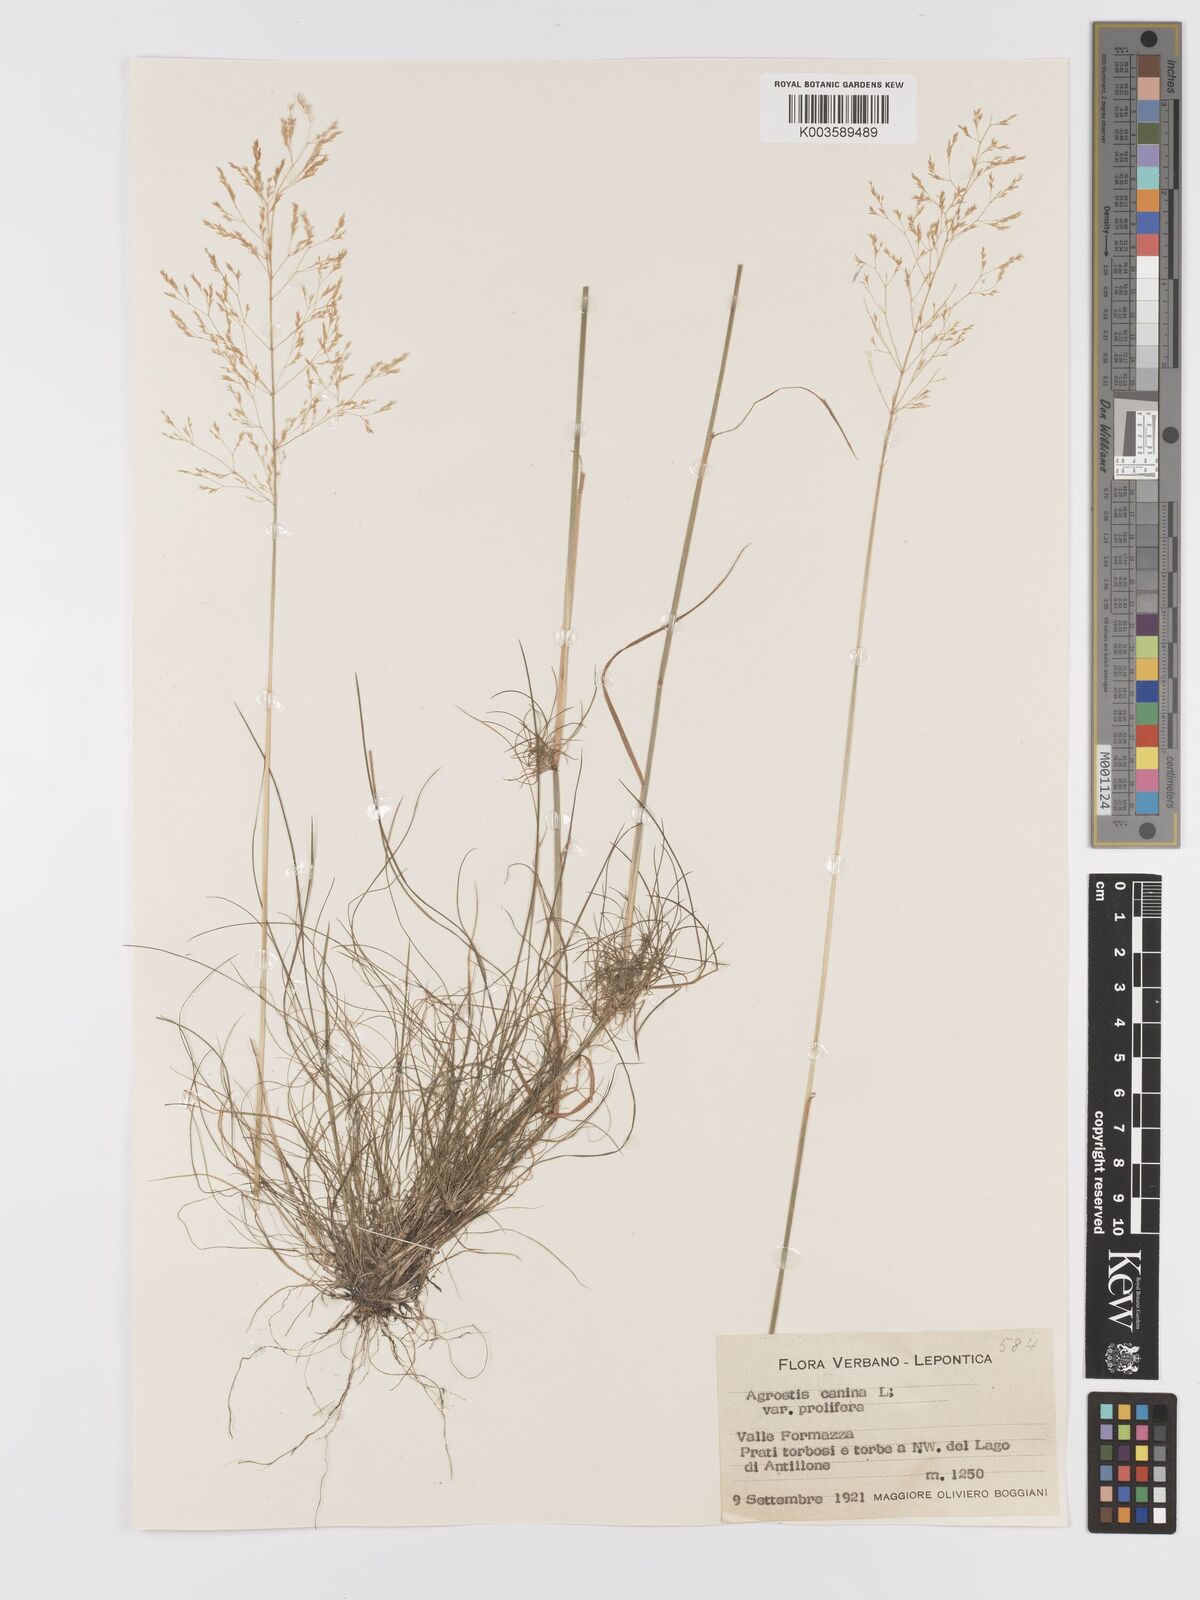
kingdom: Plantae
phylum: Tracheophyta
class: Liliopsida
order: Poales
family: Poaceae
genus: Agrostis
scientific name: Agrostis canina
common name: Velvet bent
